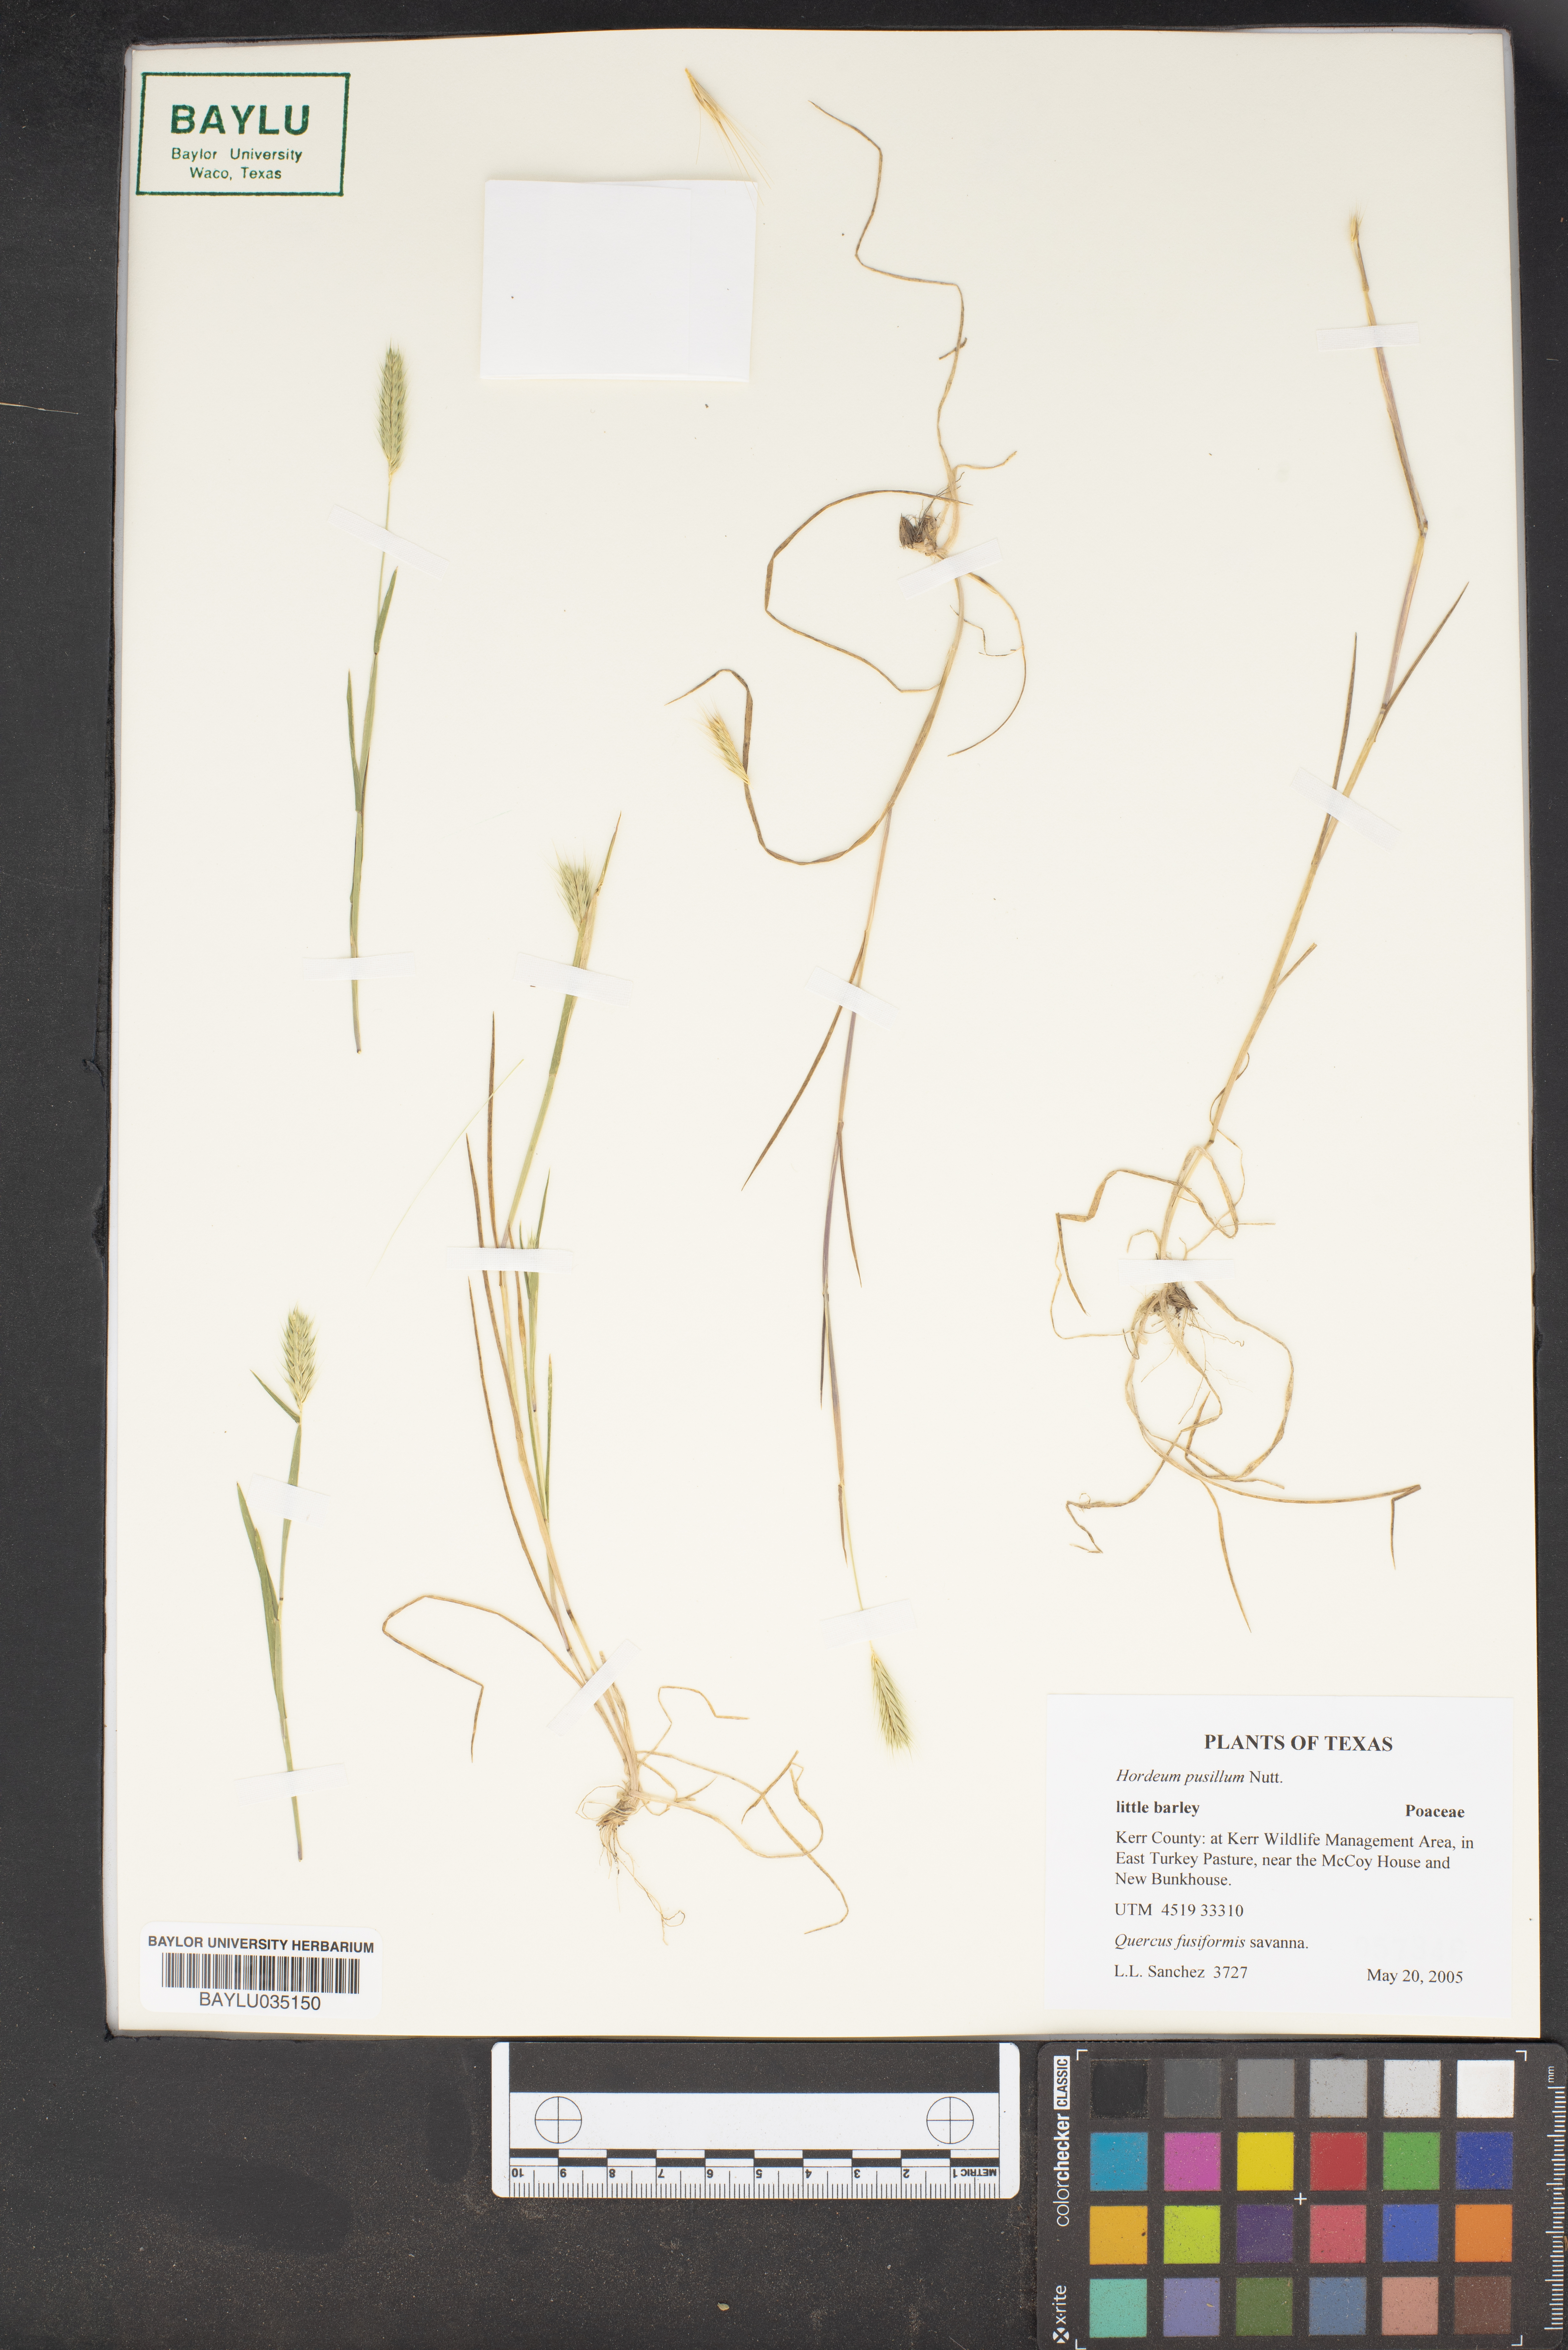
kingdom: Plantae
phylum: Tracheophyta
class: Liliopsida
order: Poales
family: Poaceae
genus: Hordeum
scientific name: Hordeum pusillum
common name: Little barley
